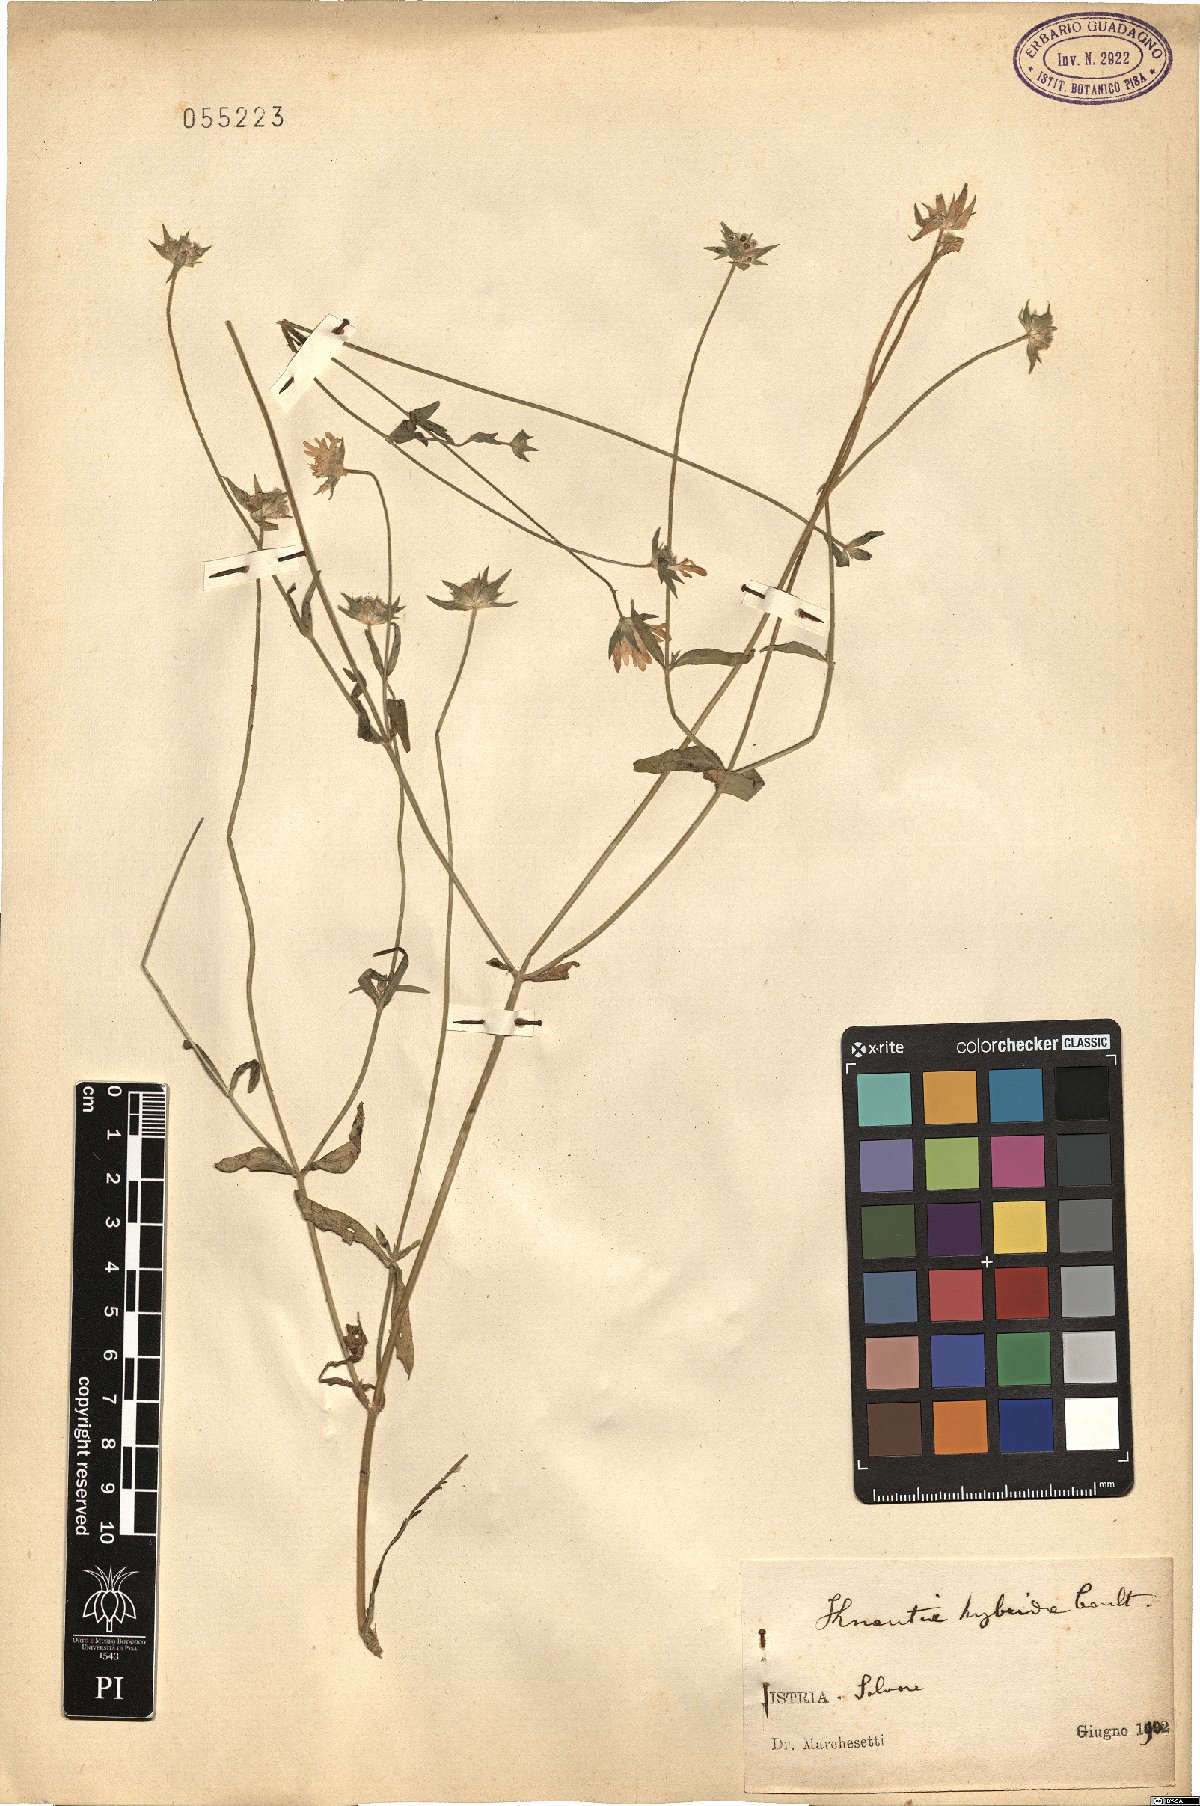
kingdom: Plantae
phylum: Tracheophyta
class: Magnoliopsida
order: Dipsacales
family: Caprifoliaceae
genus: Knautia
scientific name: Knautia integrifolia
